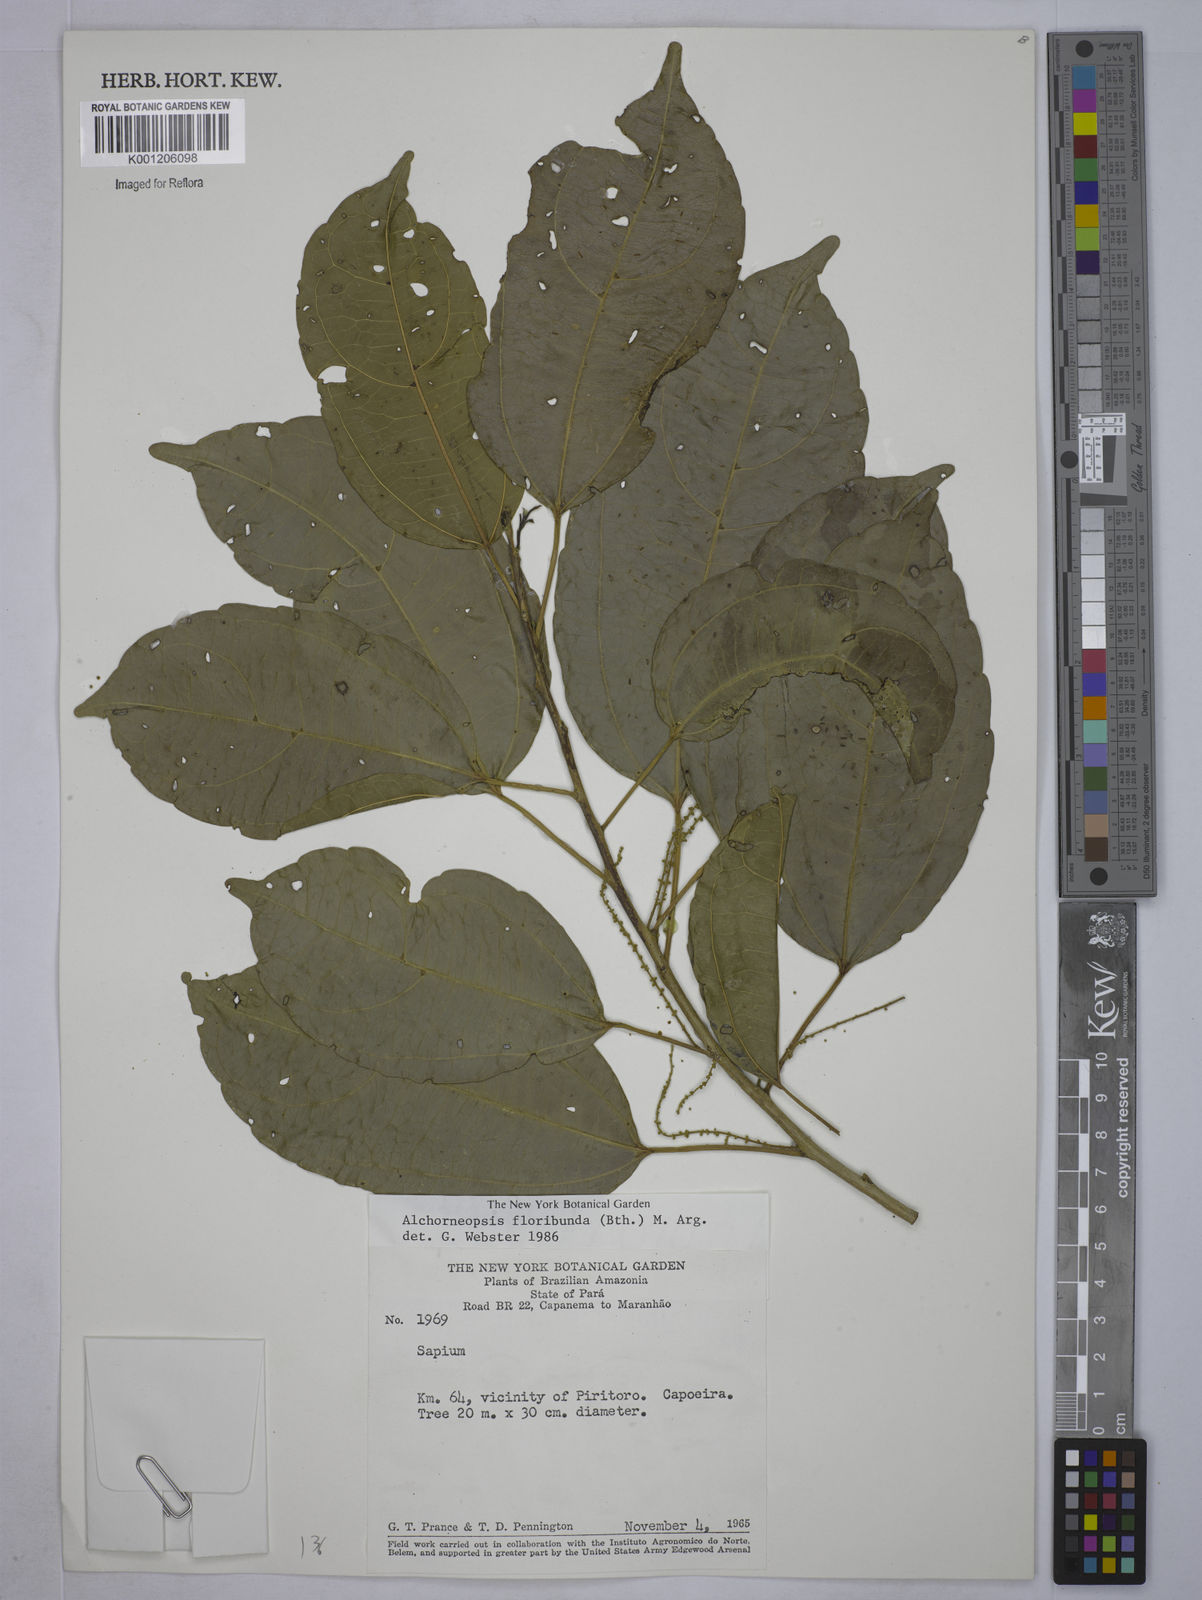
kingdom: Plantae
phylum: Tracheophyta
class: Magnoliopsida
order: Malpighiales
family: Euphorbiaceae
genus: Alchorneopsis
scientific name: Alchorneopsis
